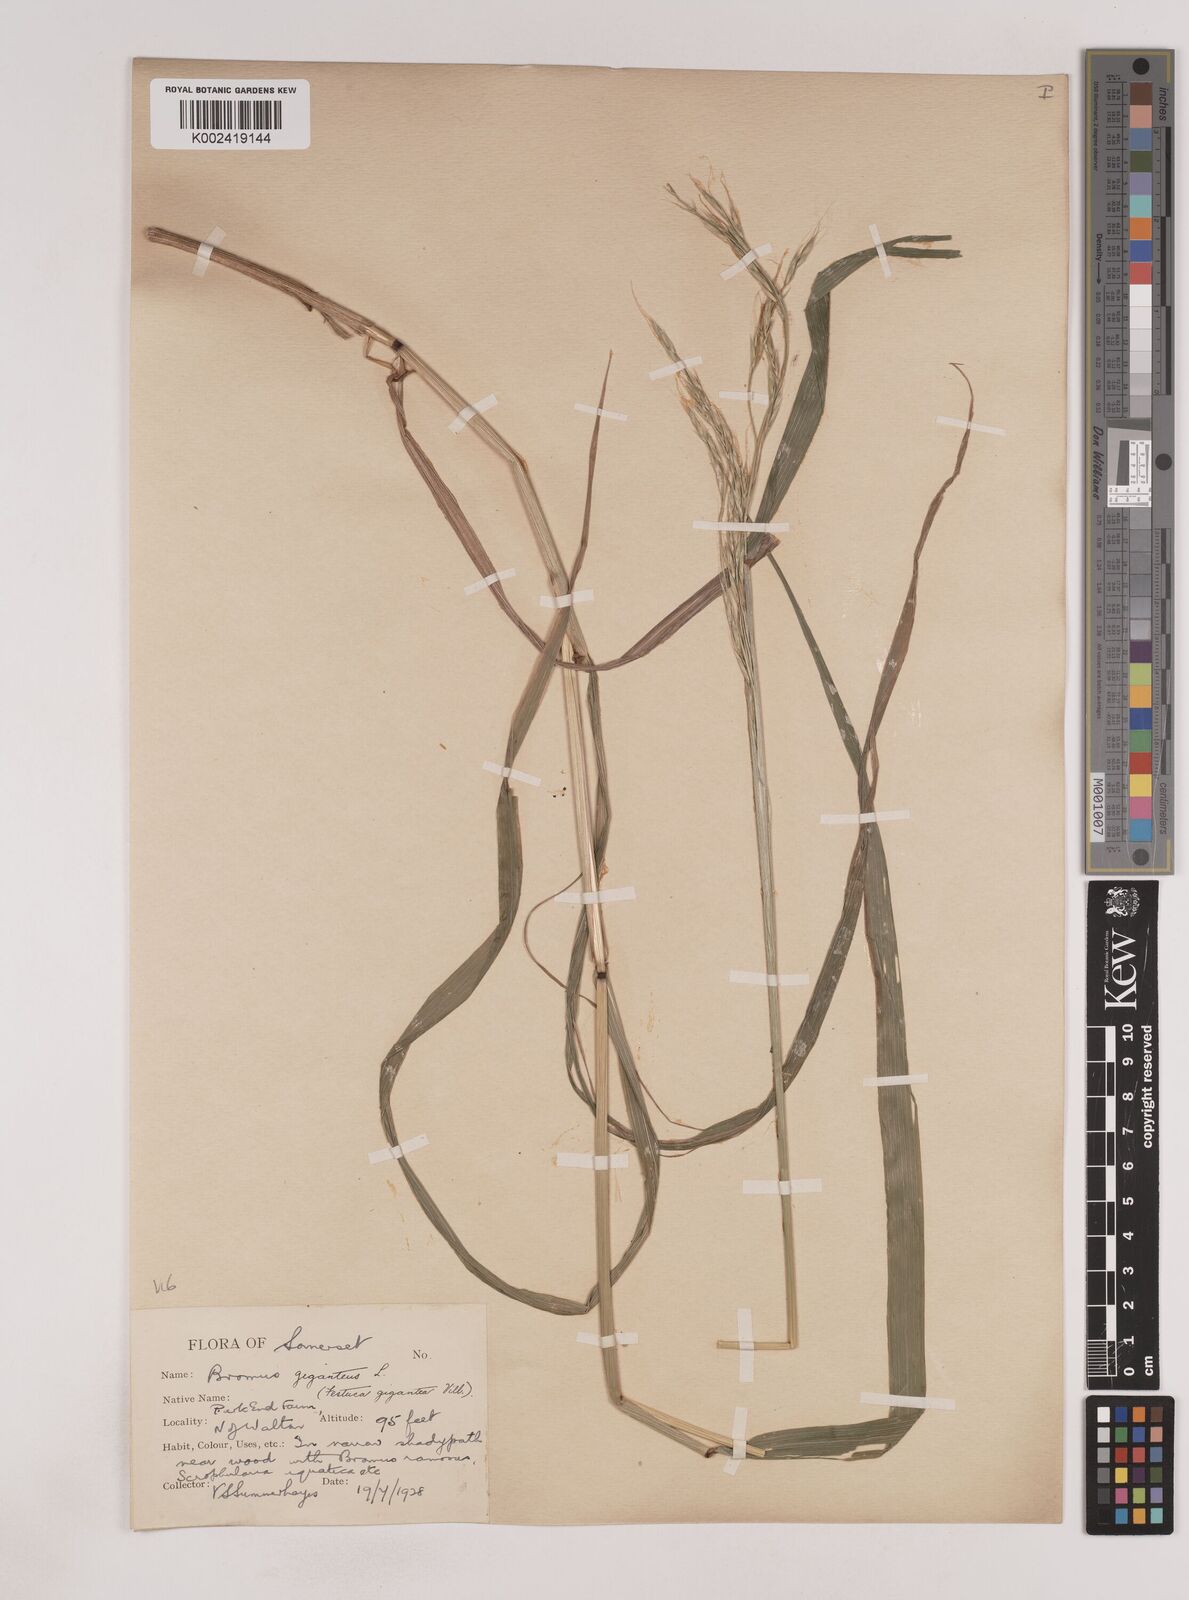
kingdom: Plantae
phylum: Tracheophyta
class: Liliopsida
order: Poales
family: Poaceae
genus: Lolium
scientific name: Lolium giganteum
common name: Giant fescue
